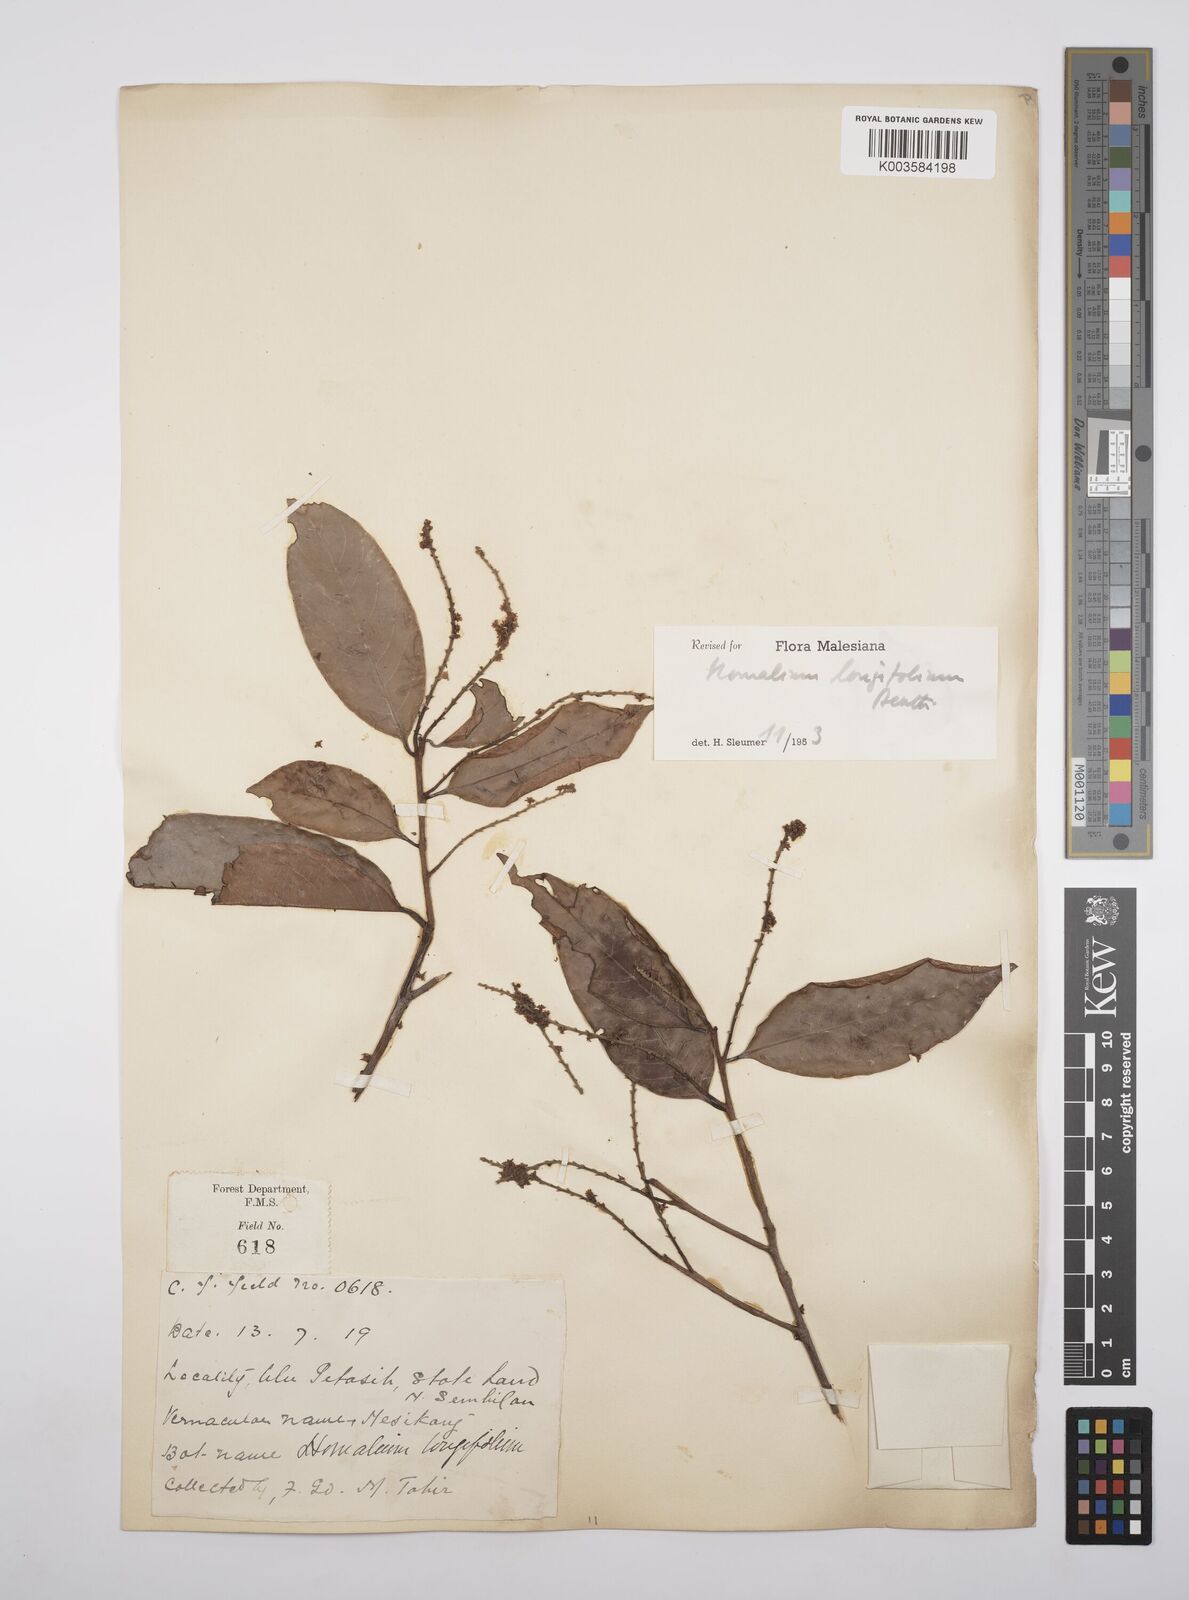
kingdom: Plantae
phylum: Tracheophyta
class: Magnoliopsida
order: Malpighiales
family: Salicaceae
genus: Homalium
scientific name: Homalium longifolium
